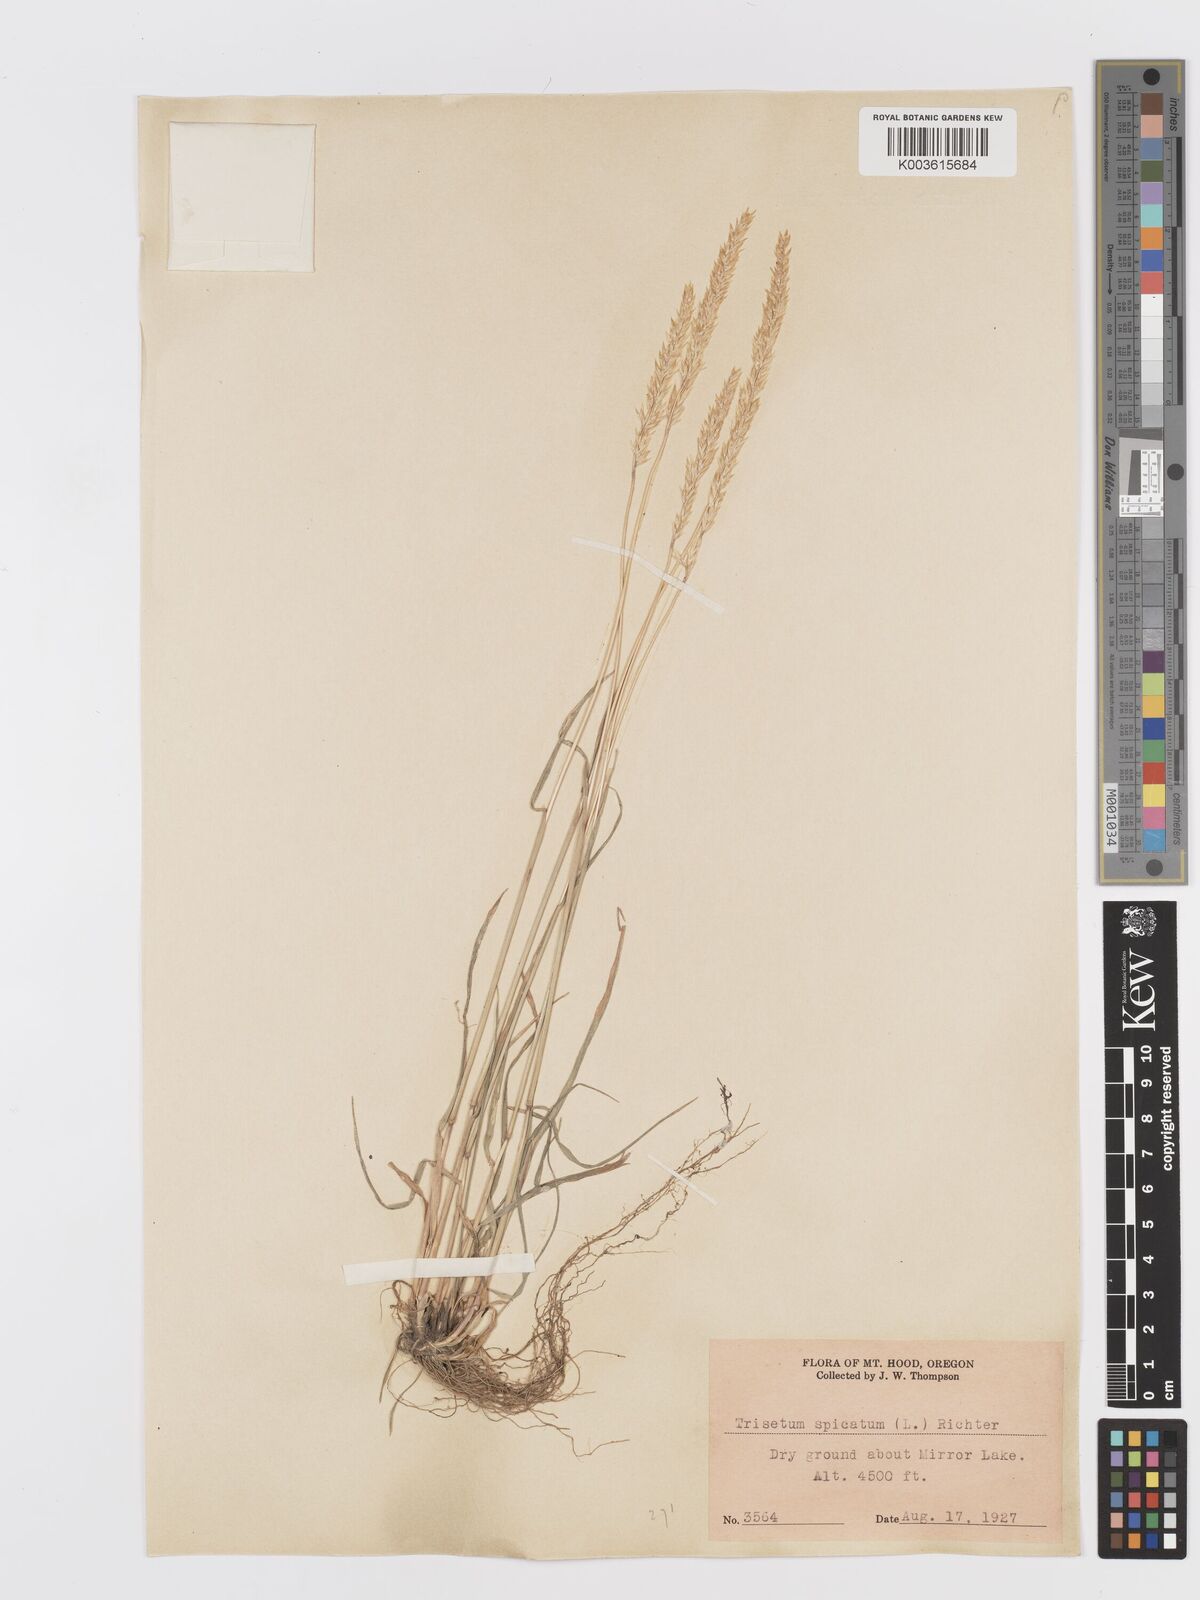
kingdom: Plantae
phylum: Tracheophyta
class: Liliopsida
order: Poales
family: Poaceae
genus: Koeleria
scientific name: Koeleria spicata
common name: Mountain trisetum
